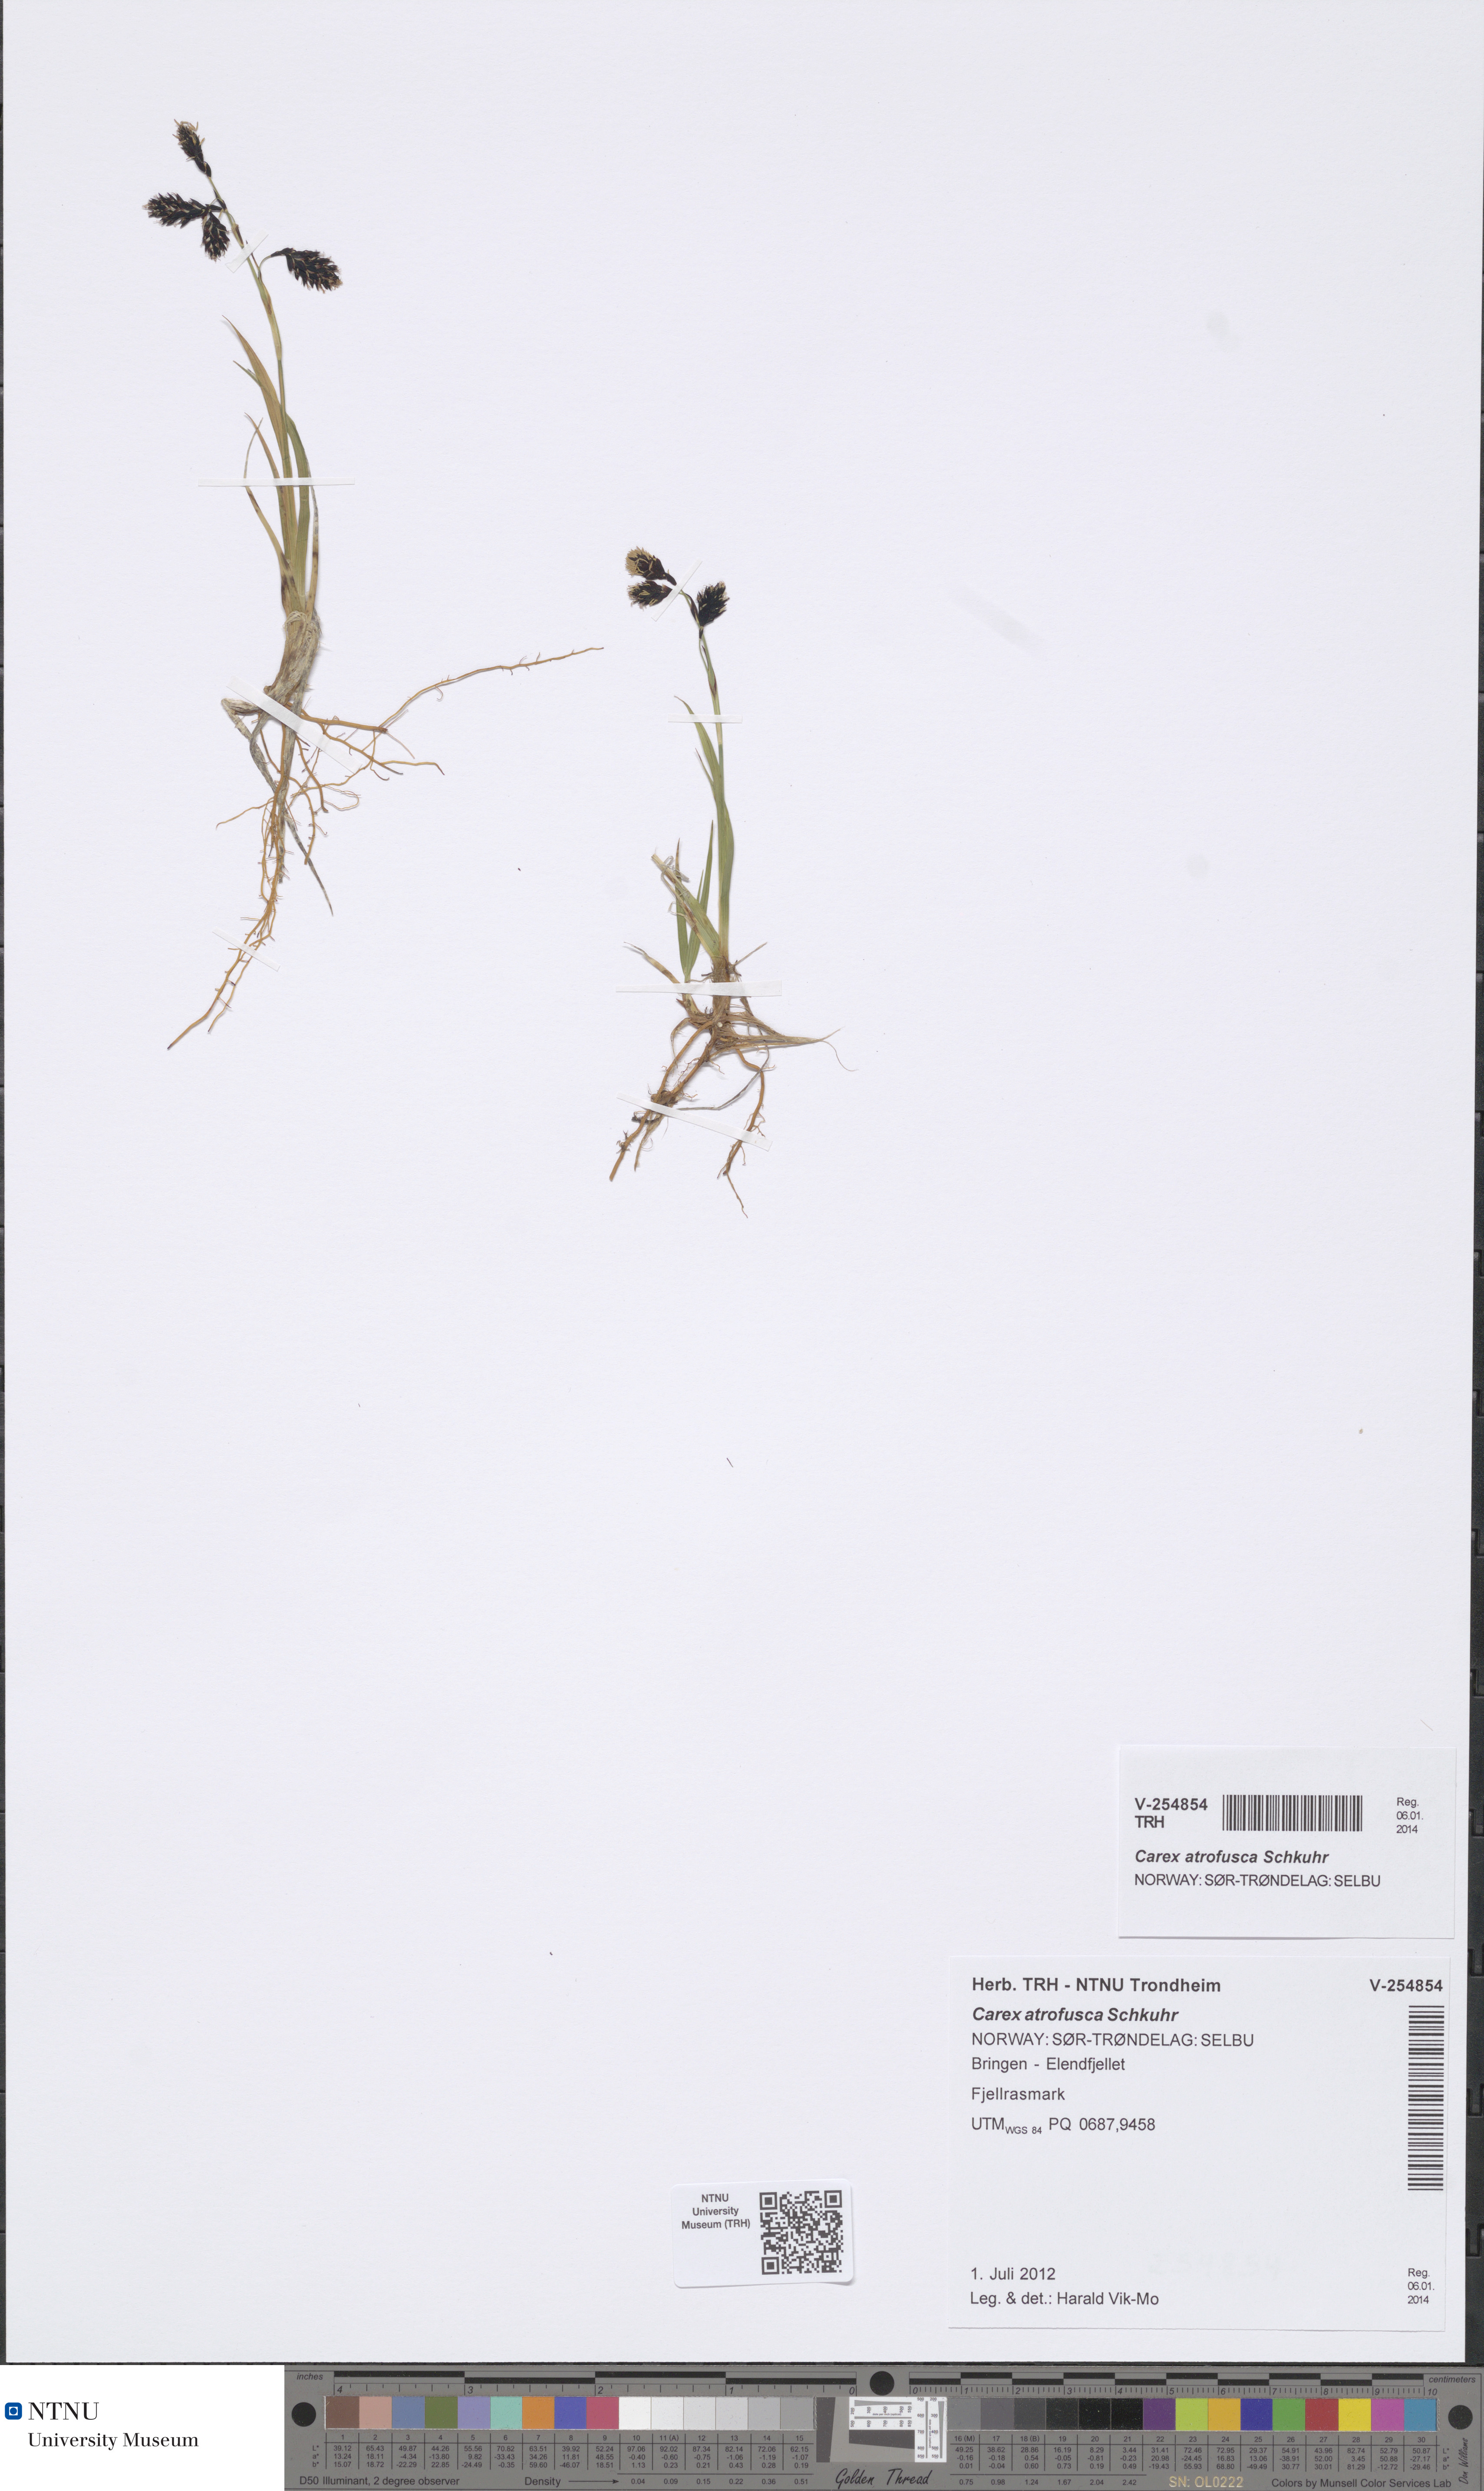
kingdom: Plantae
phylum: Tracheophyta
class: Liliopsida
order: Poales
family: Cyperaceae
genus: Carex
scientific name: Carex atrofusca
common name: Scorched alpine-sedge
